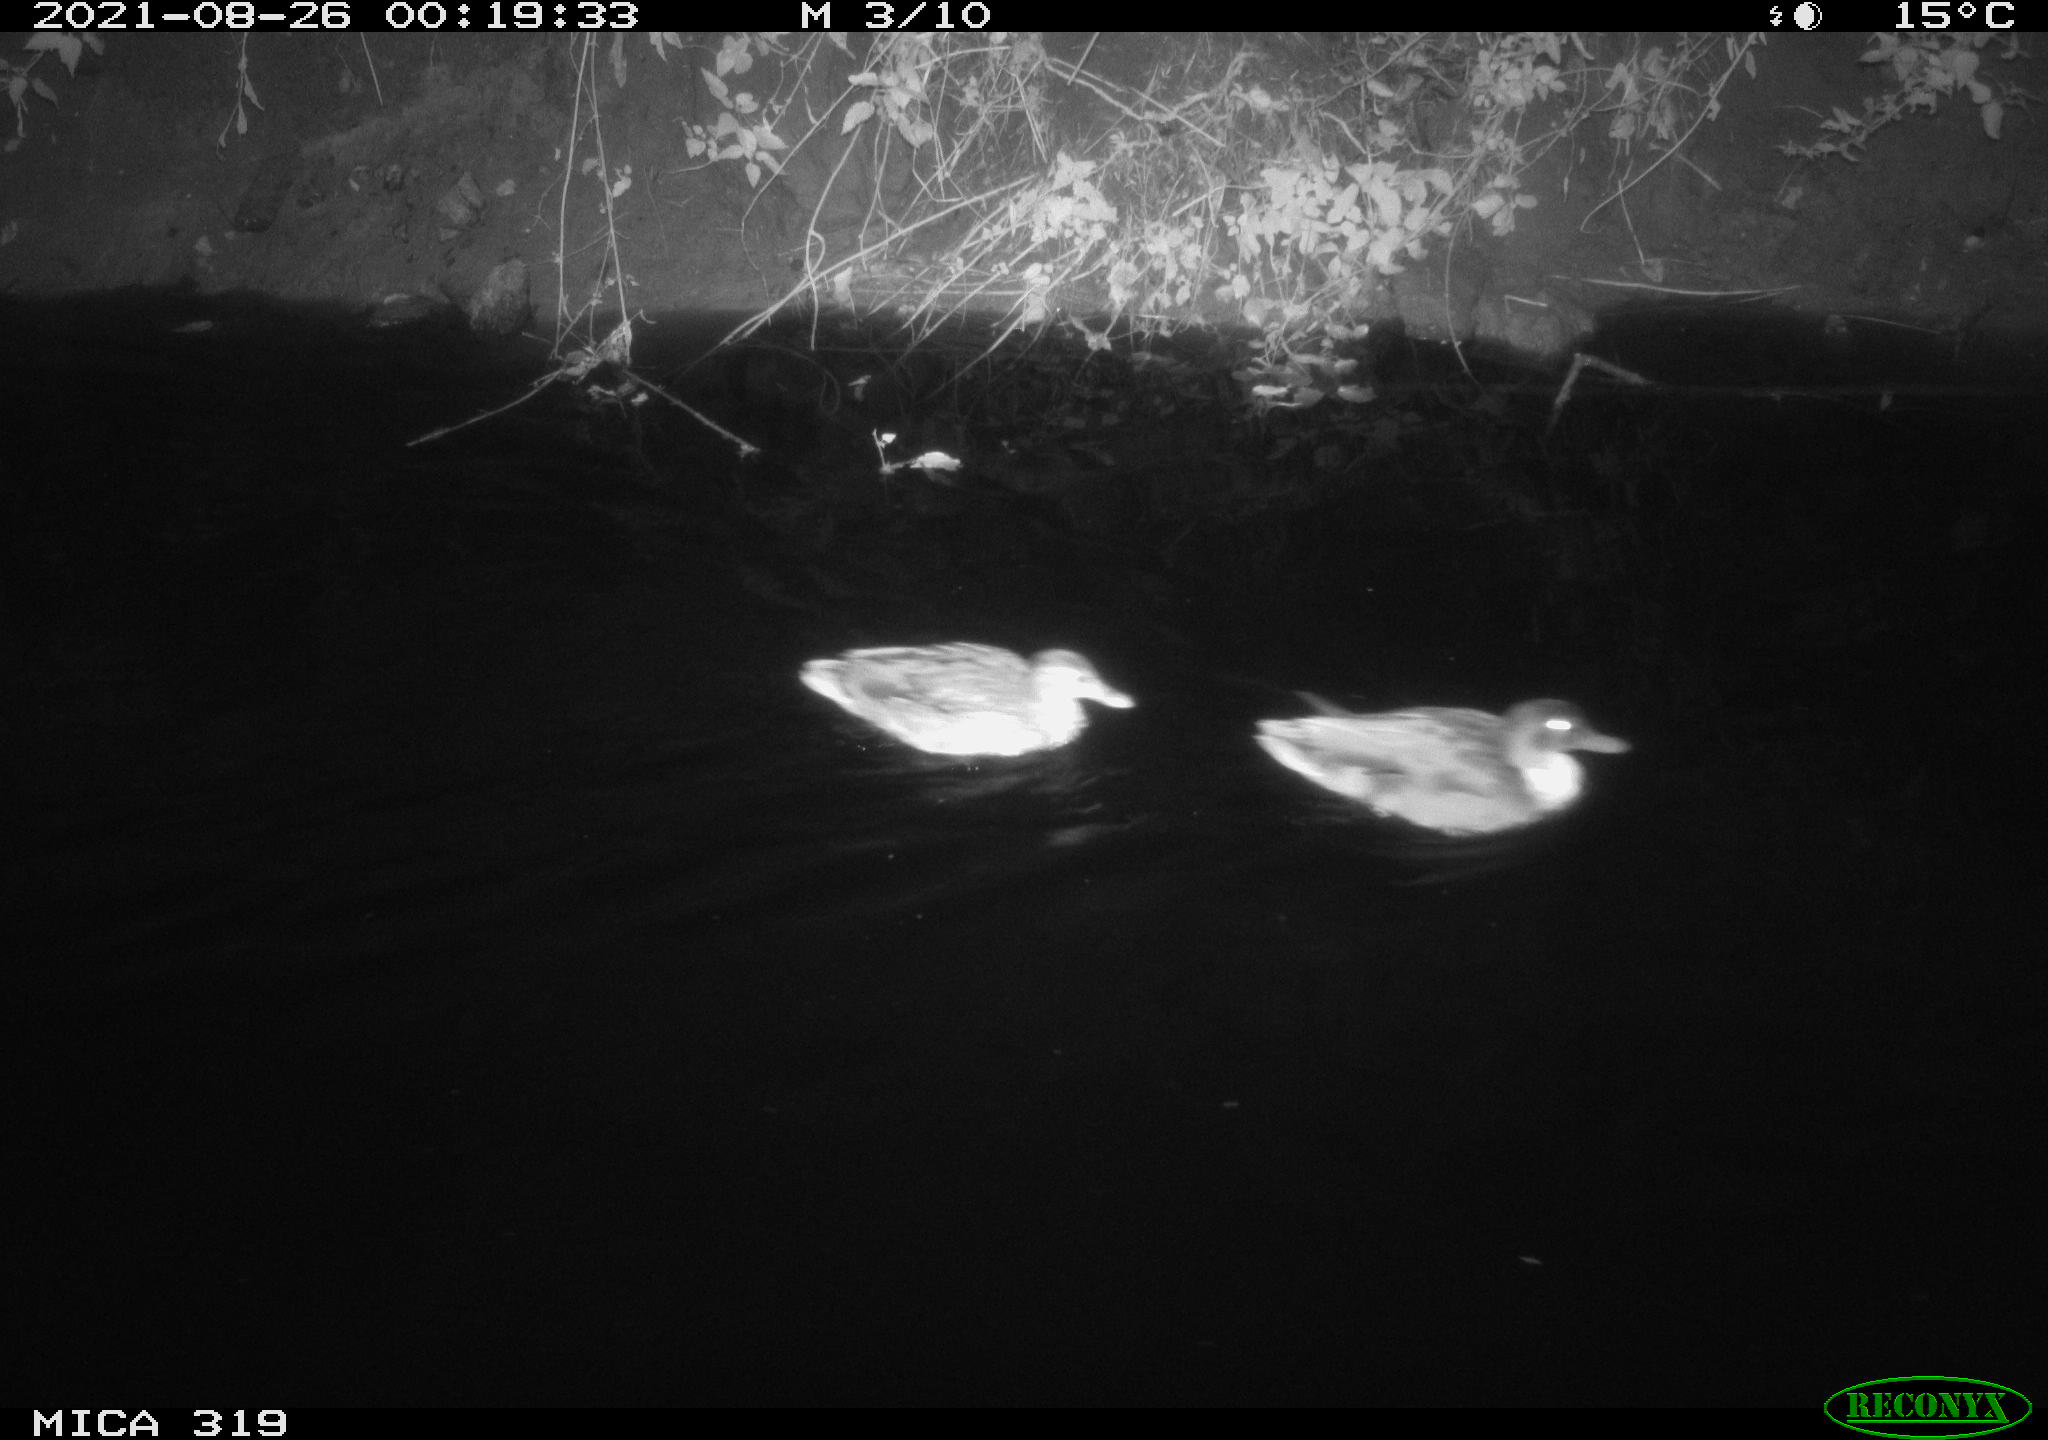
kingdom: Animalia
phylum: Chordata
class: Aves
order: Anseriformes
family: Anatidae
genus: Anas
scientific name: Anas platyrhynchos
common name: Mallard
